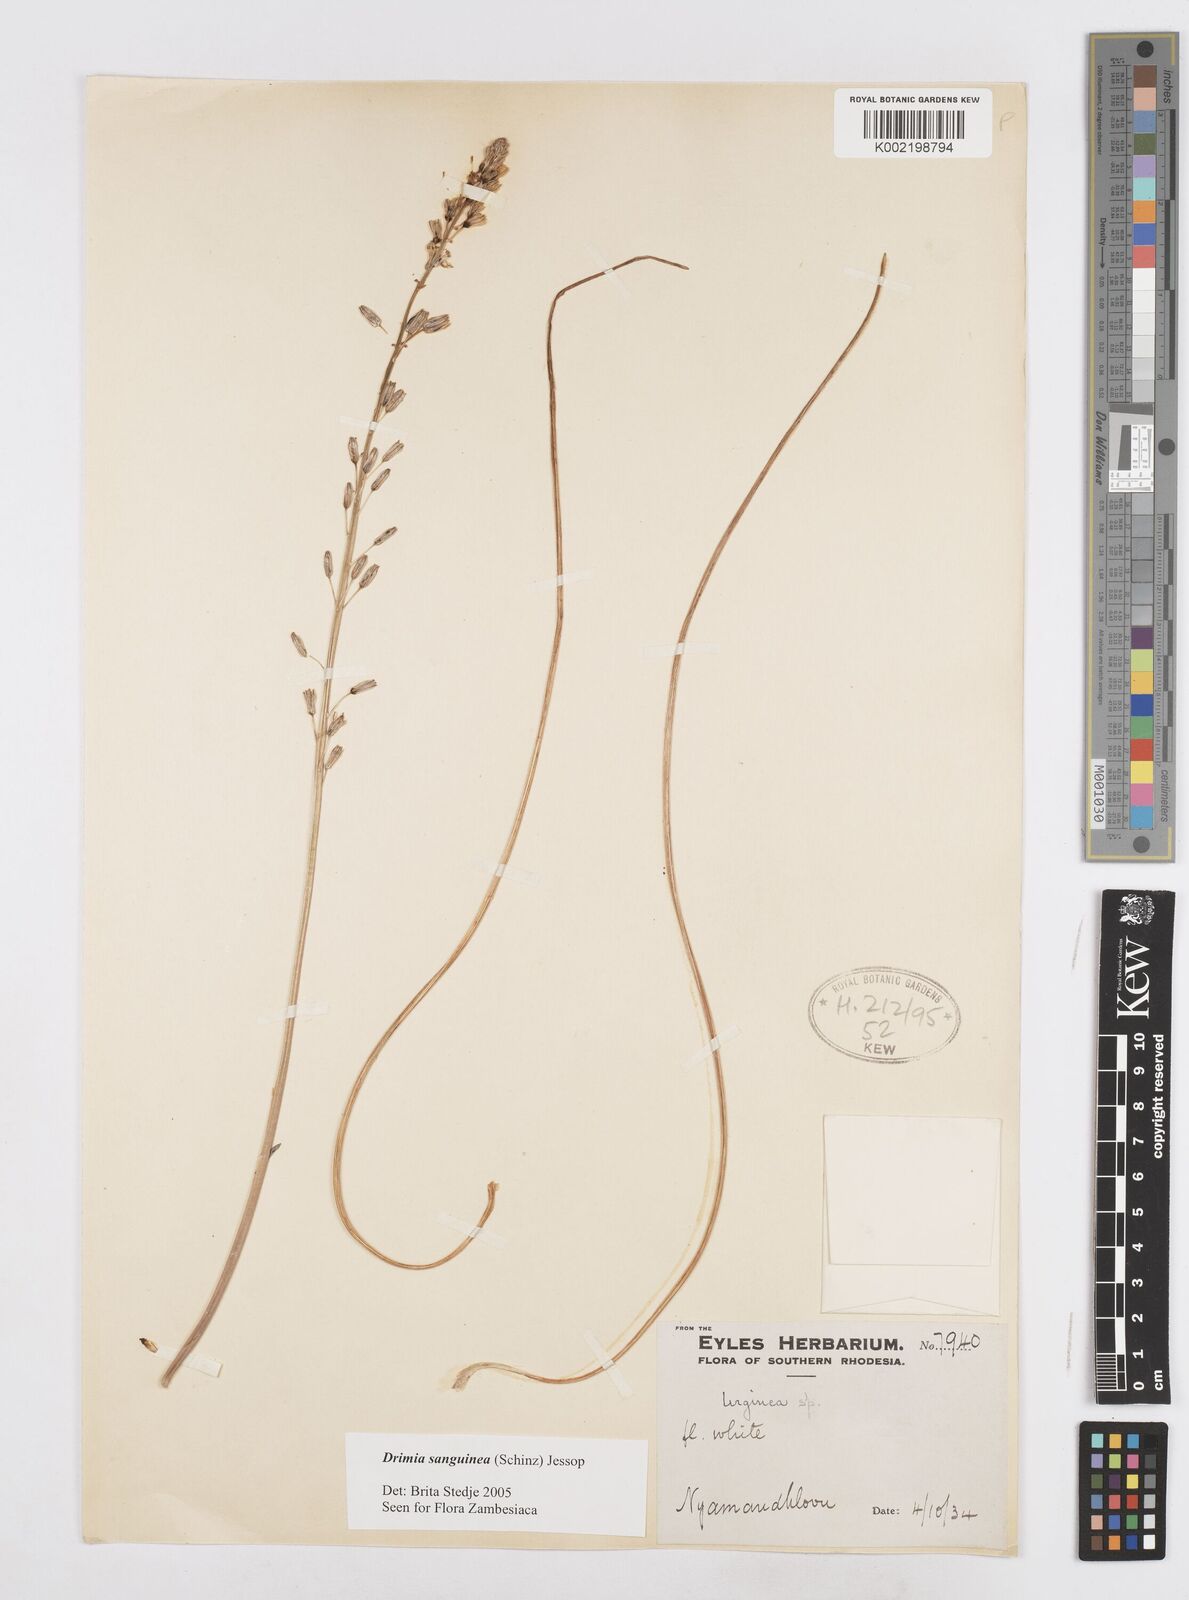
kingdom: Plantae
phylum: Tracheophyta
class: Liliopsida
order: Asparagales
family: Asparagaceae
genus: Drimia
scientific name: Drimia sanguinea
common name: Transvaal slangkop
